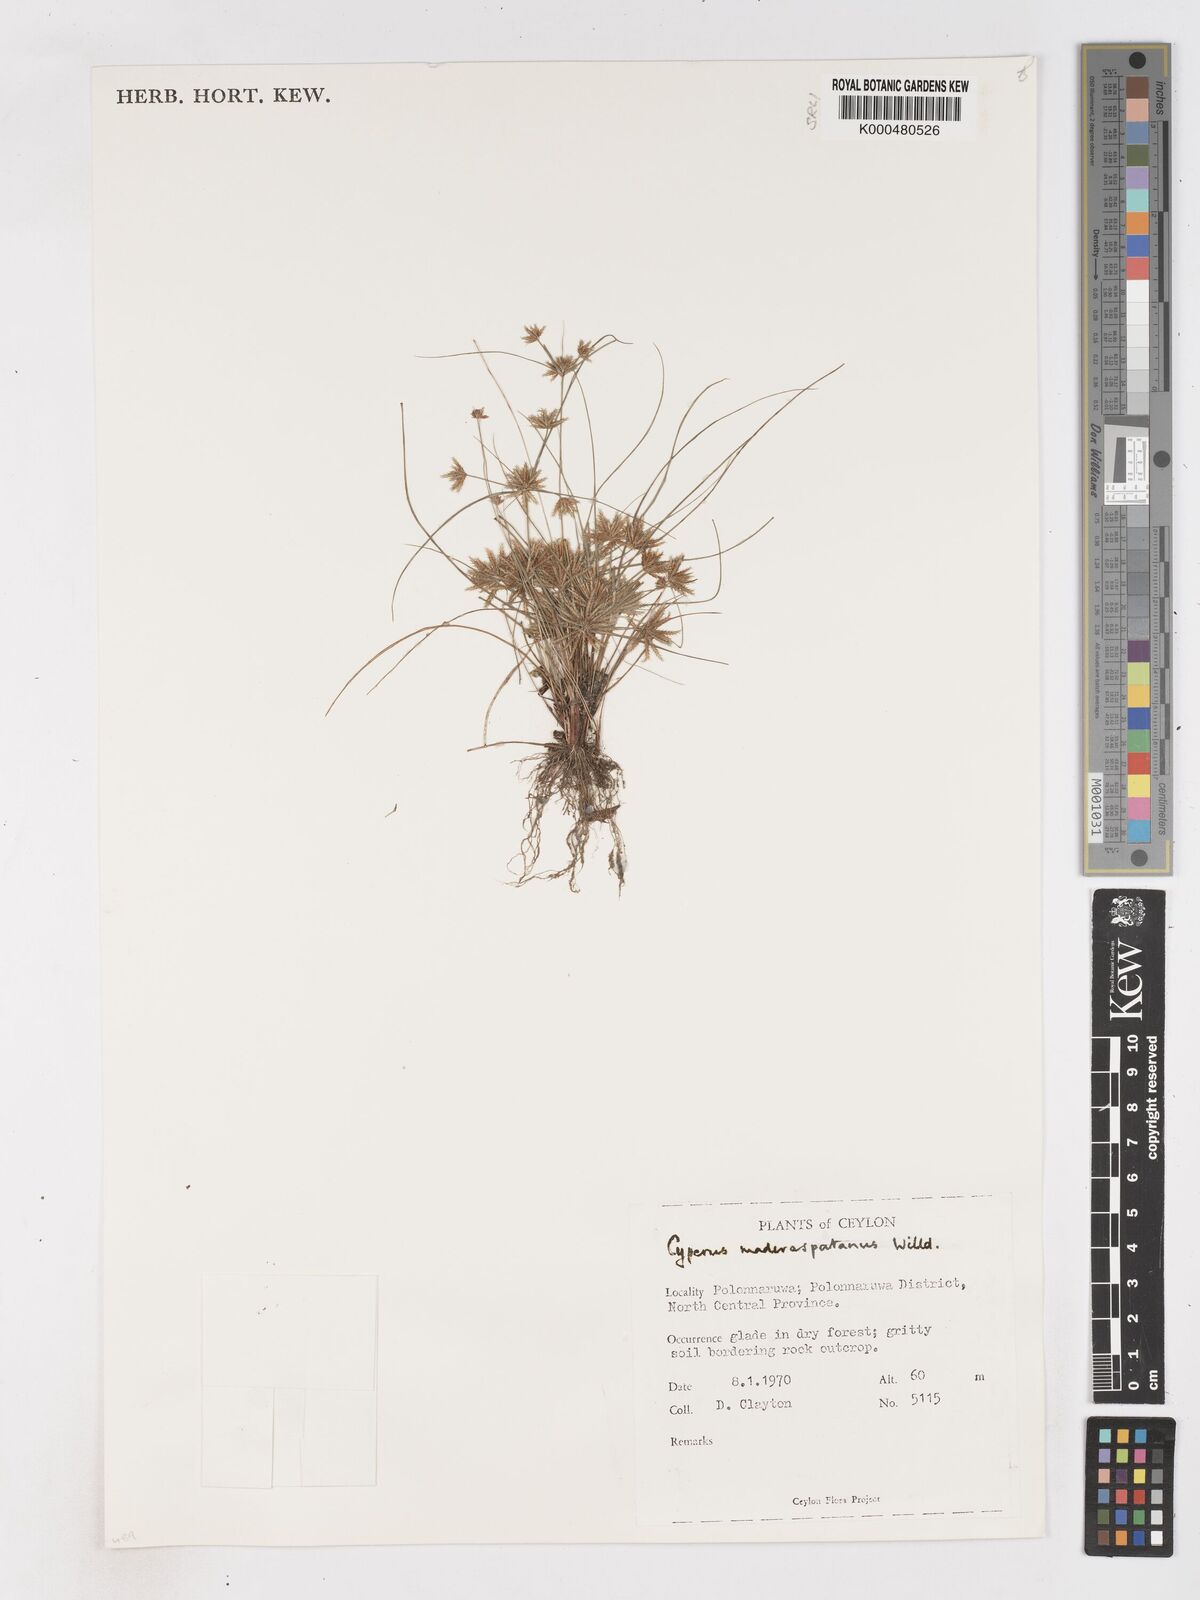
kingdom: Plantae
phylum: Tracheophyta
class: Liliopsida
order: Poales
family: Cyperaceae
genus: Cyperus
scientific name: Cyperus maderaspatanus
